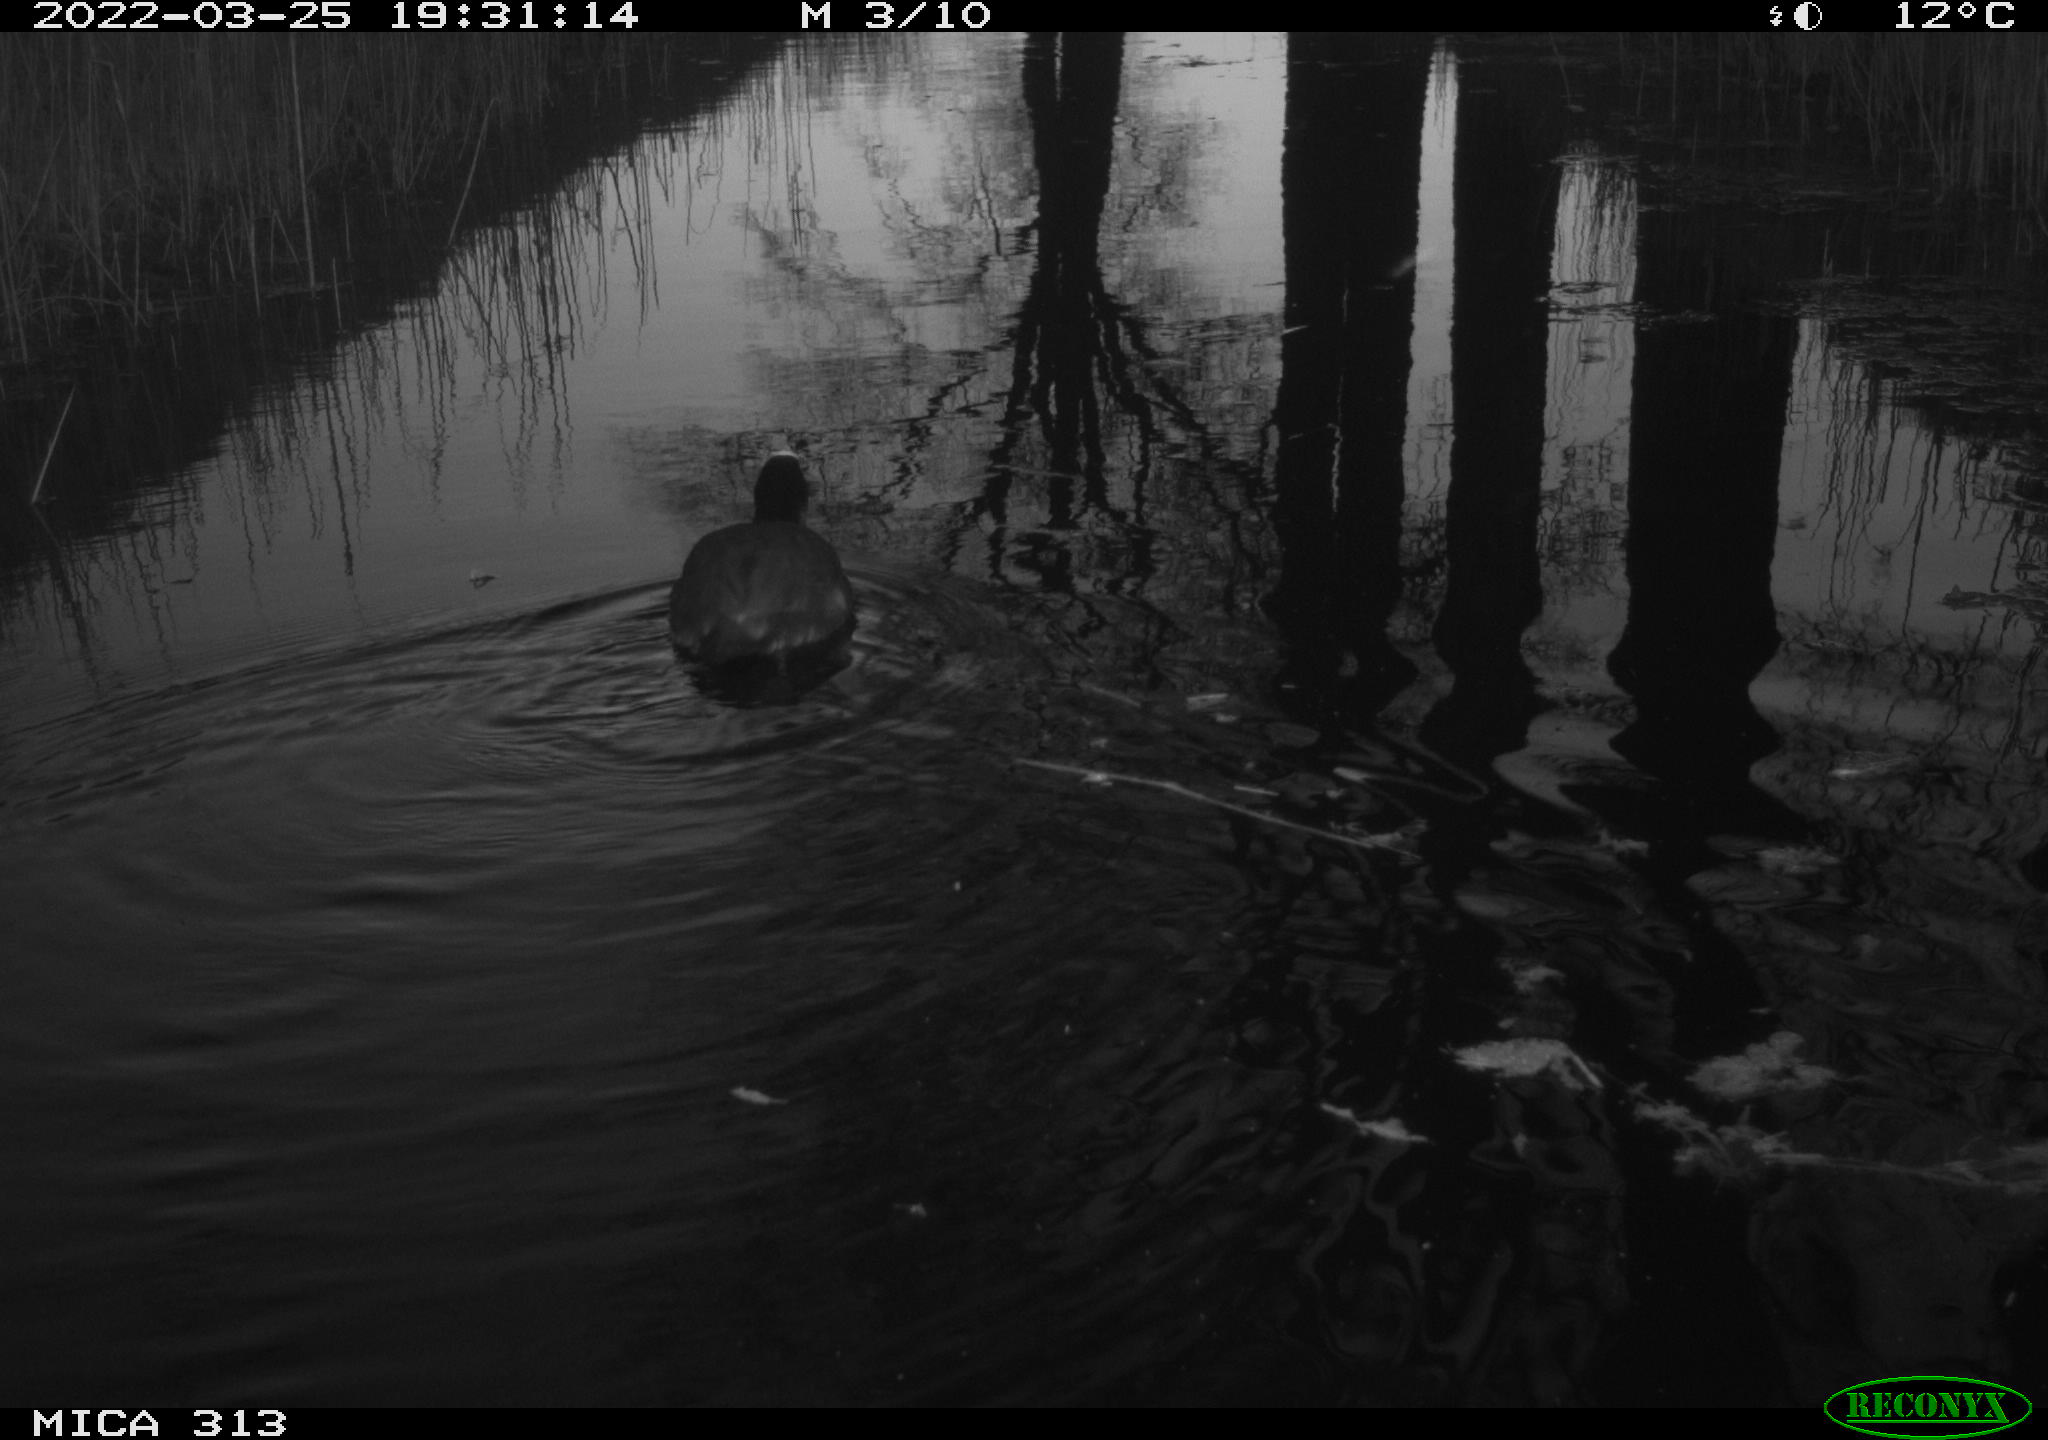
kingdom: Animalia
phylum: Chordata
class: Aves
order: Gruiformes
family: Rallidae
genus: Fulica
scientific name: Fulica atra
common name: Eurasian coot
